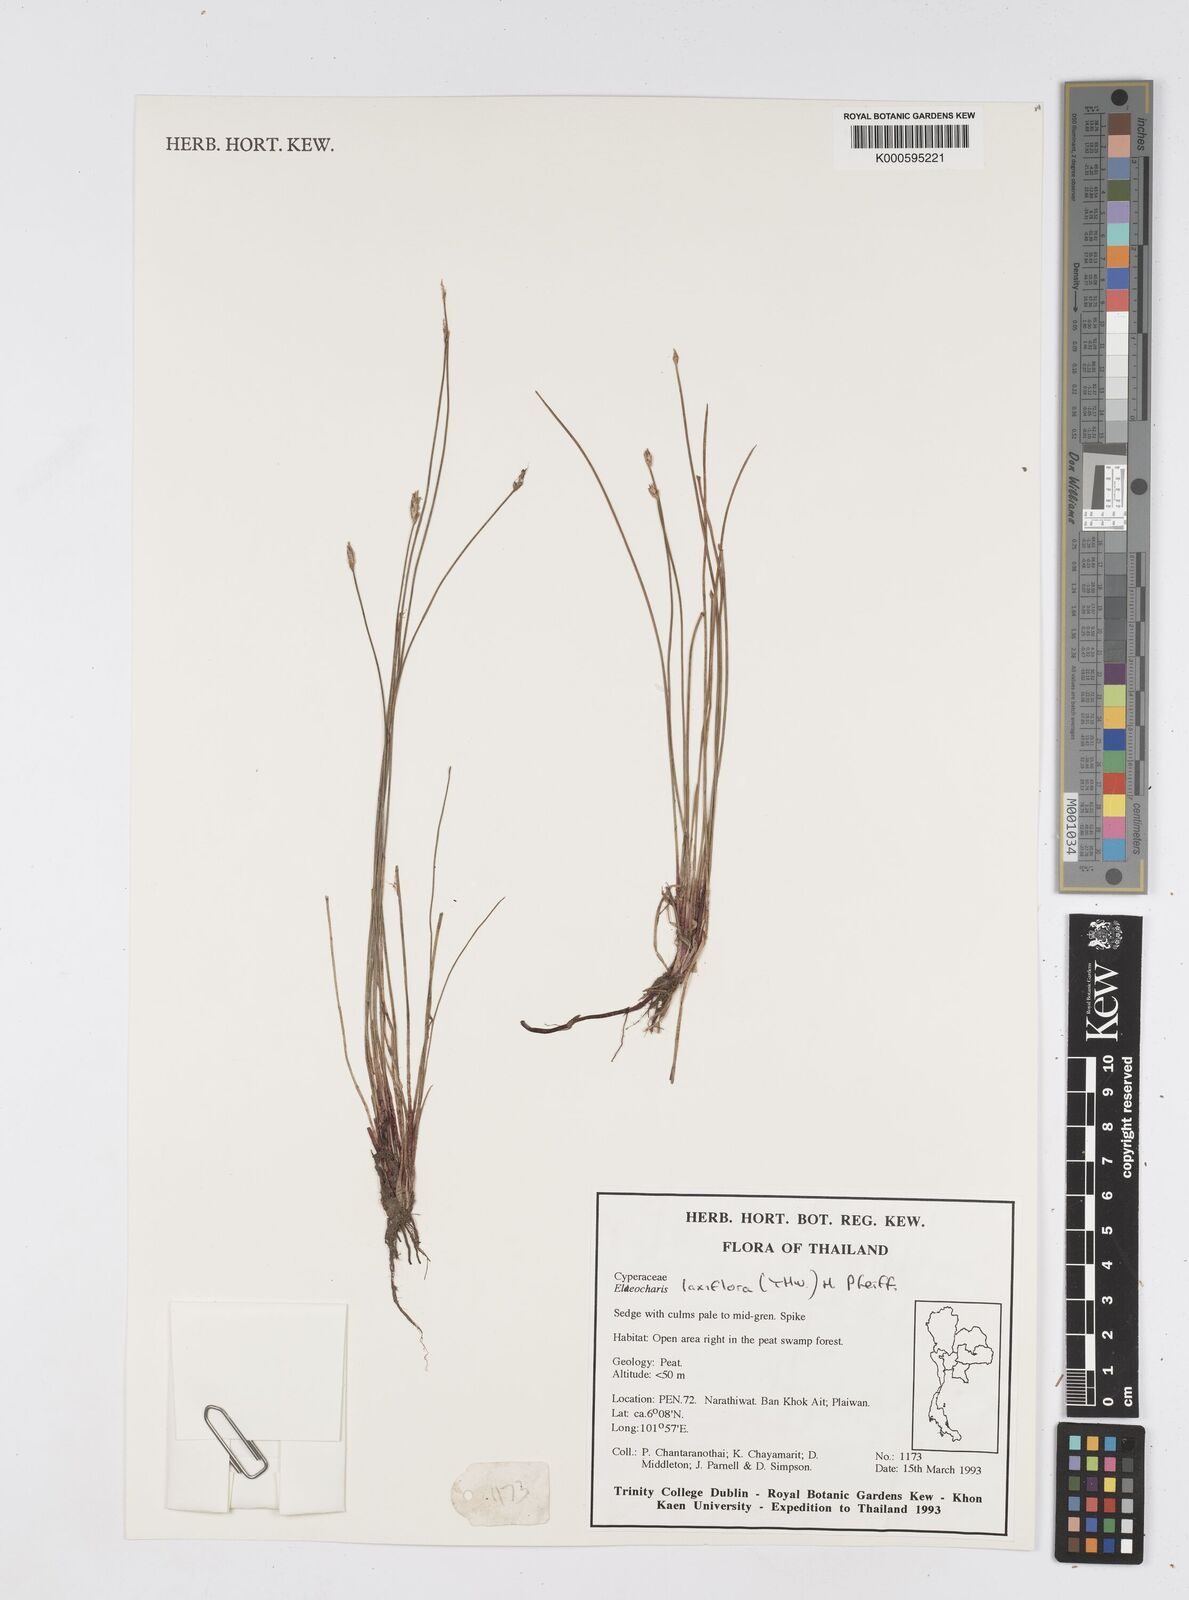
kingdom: Plantae
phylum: Tracheophyta
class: Liliopsida
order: Poales
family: Cyperaceae
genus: Eleocharis
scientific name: Eleocharis ochrostachys
